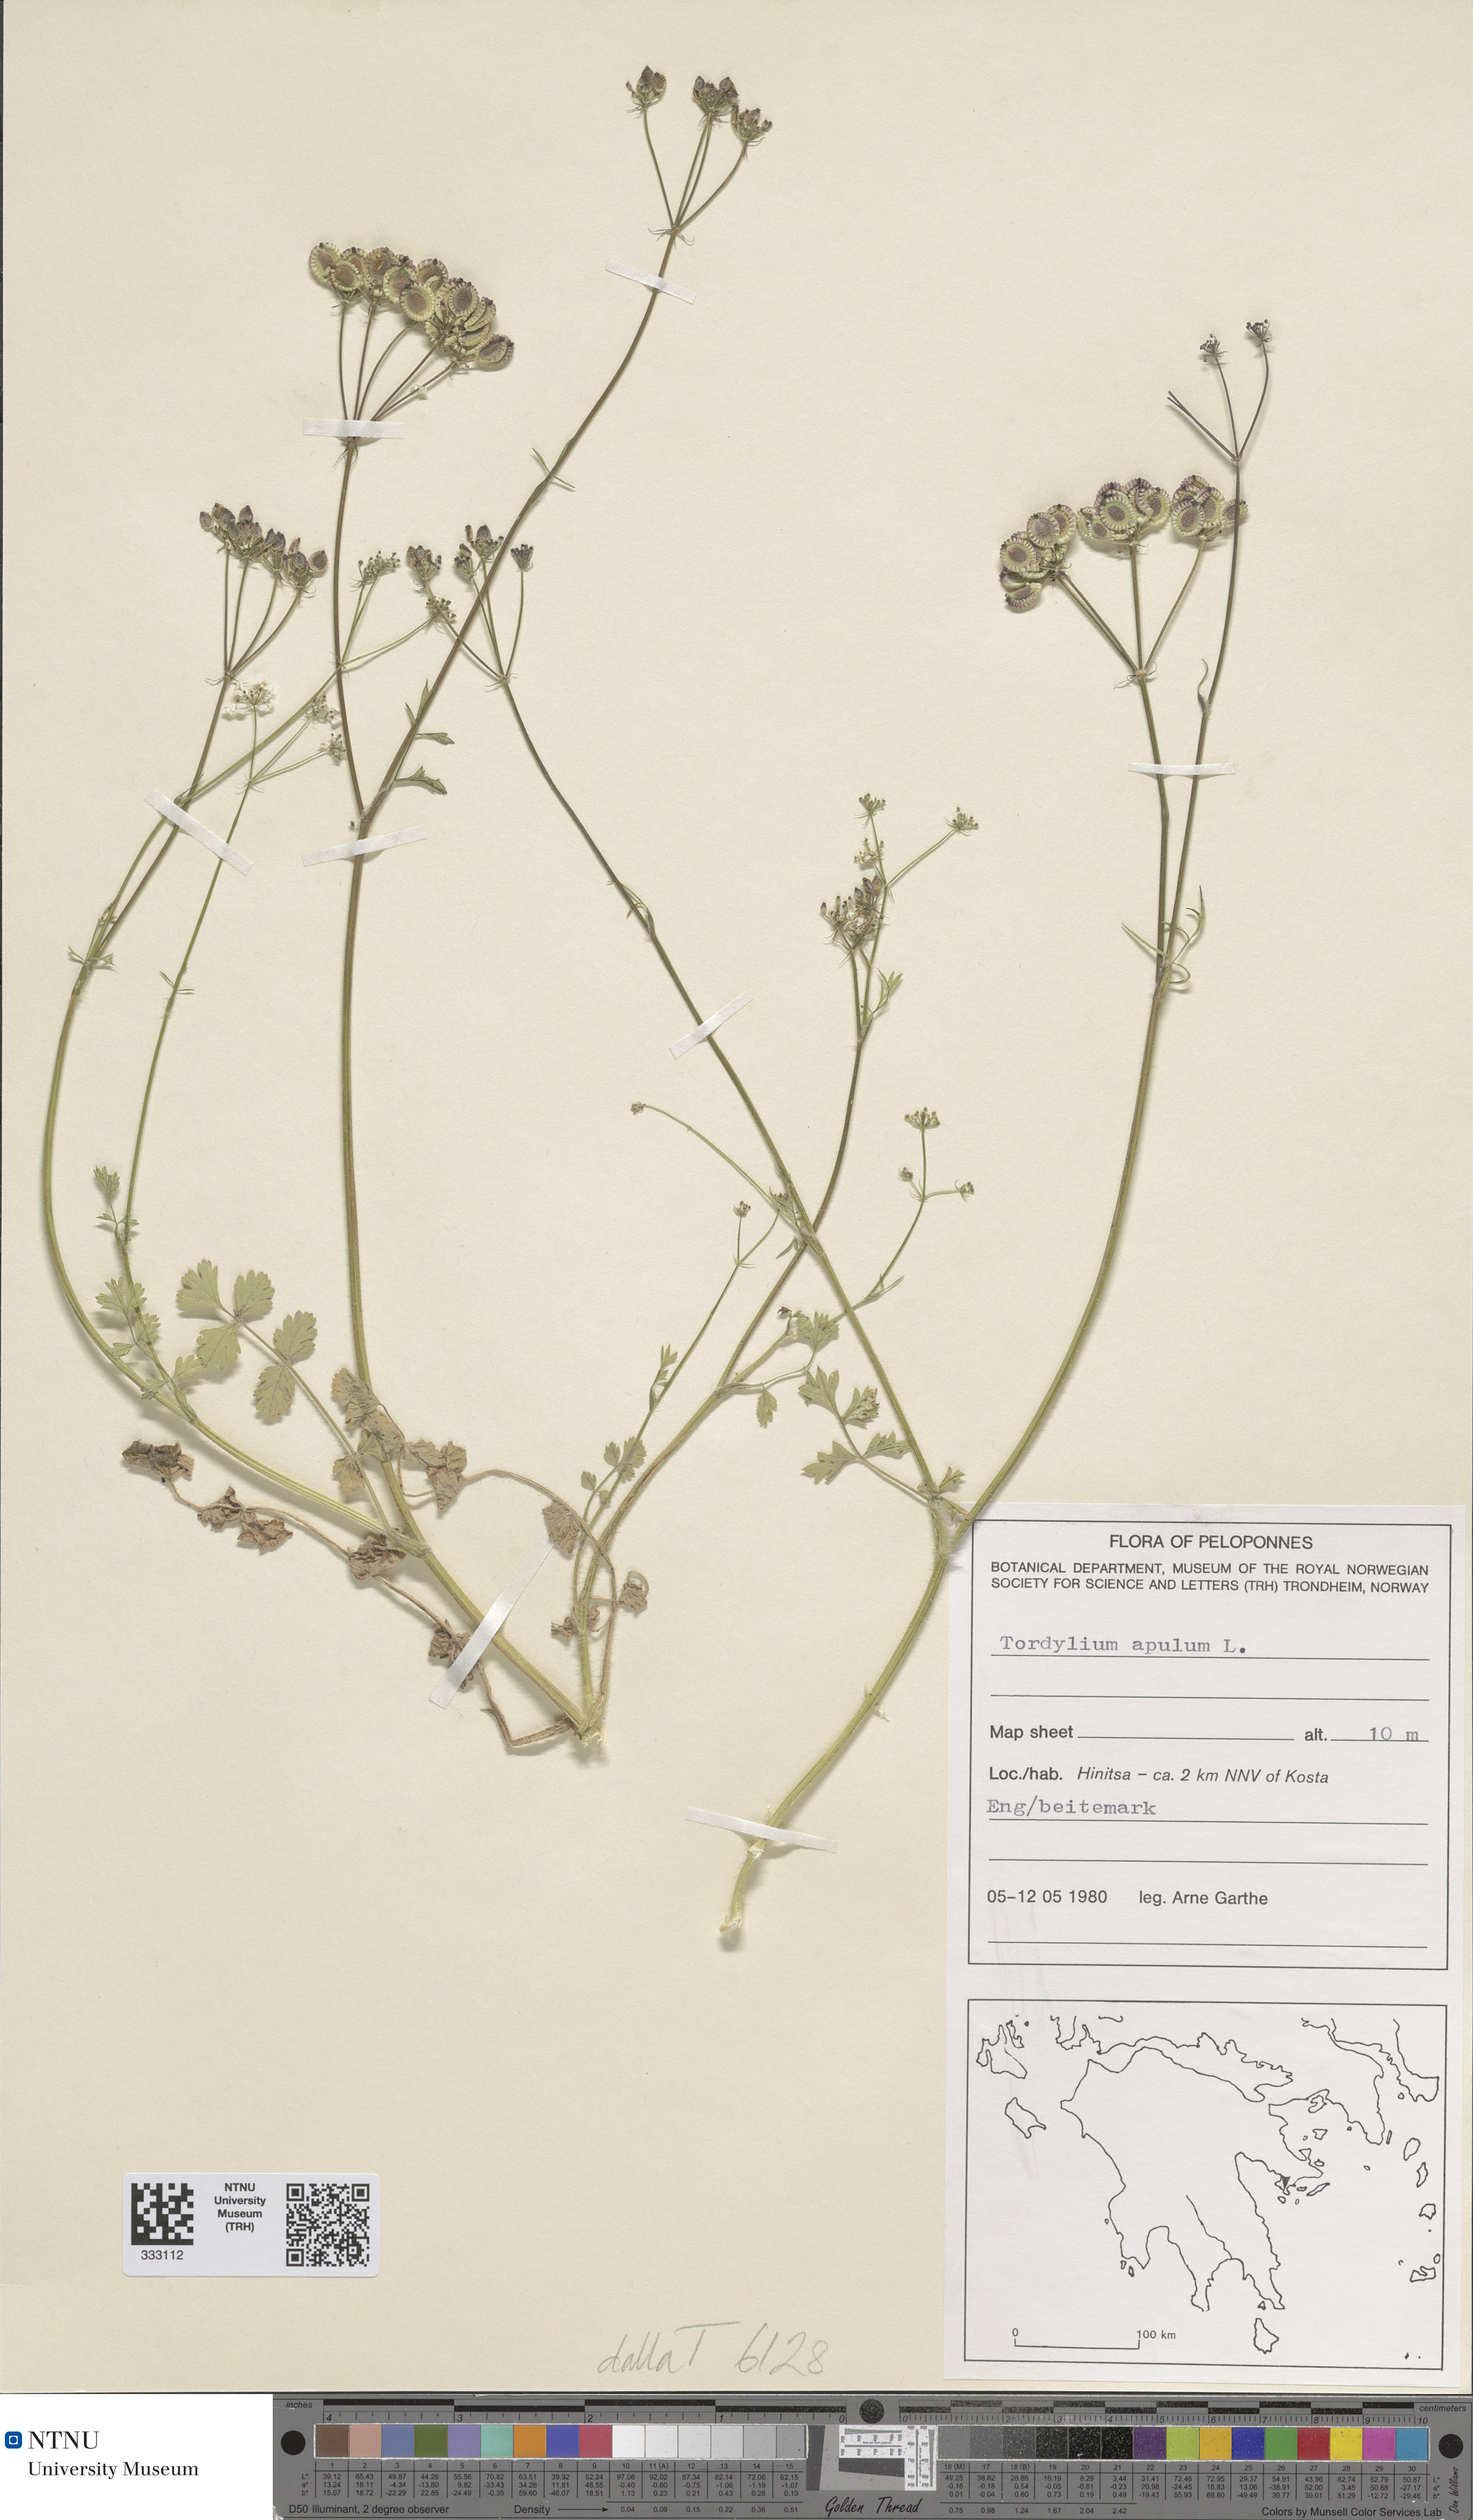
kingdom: Plantae
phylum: Tracheophyta
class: Magnoliopsida
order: Apiales
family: Apiaceae
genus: Tordylium
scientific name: Tordylium apulum
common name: Mediterranean hartwort
